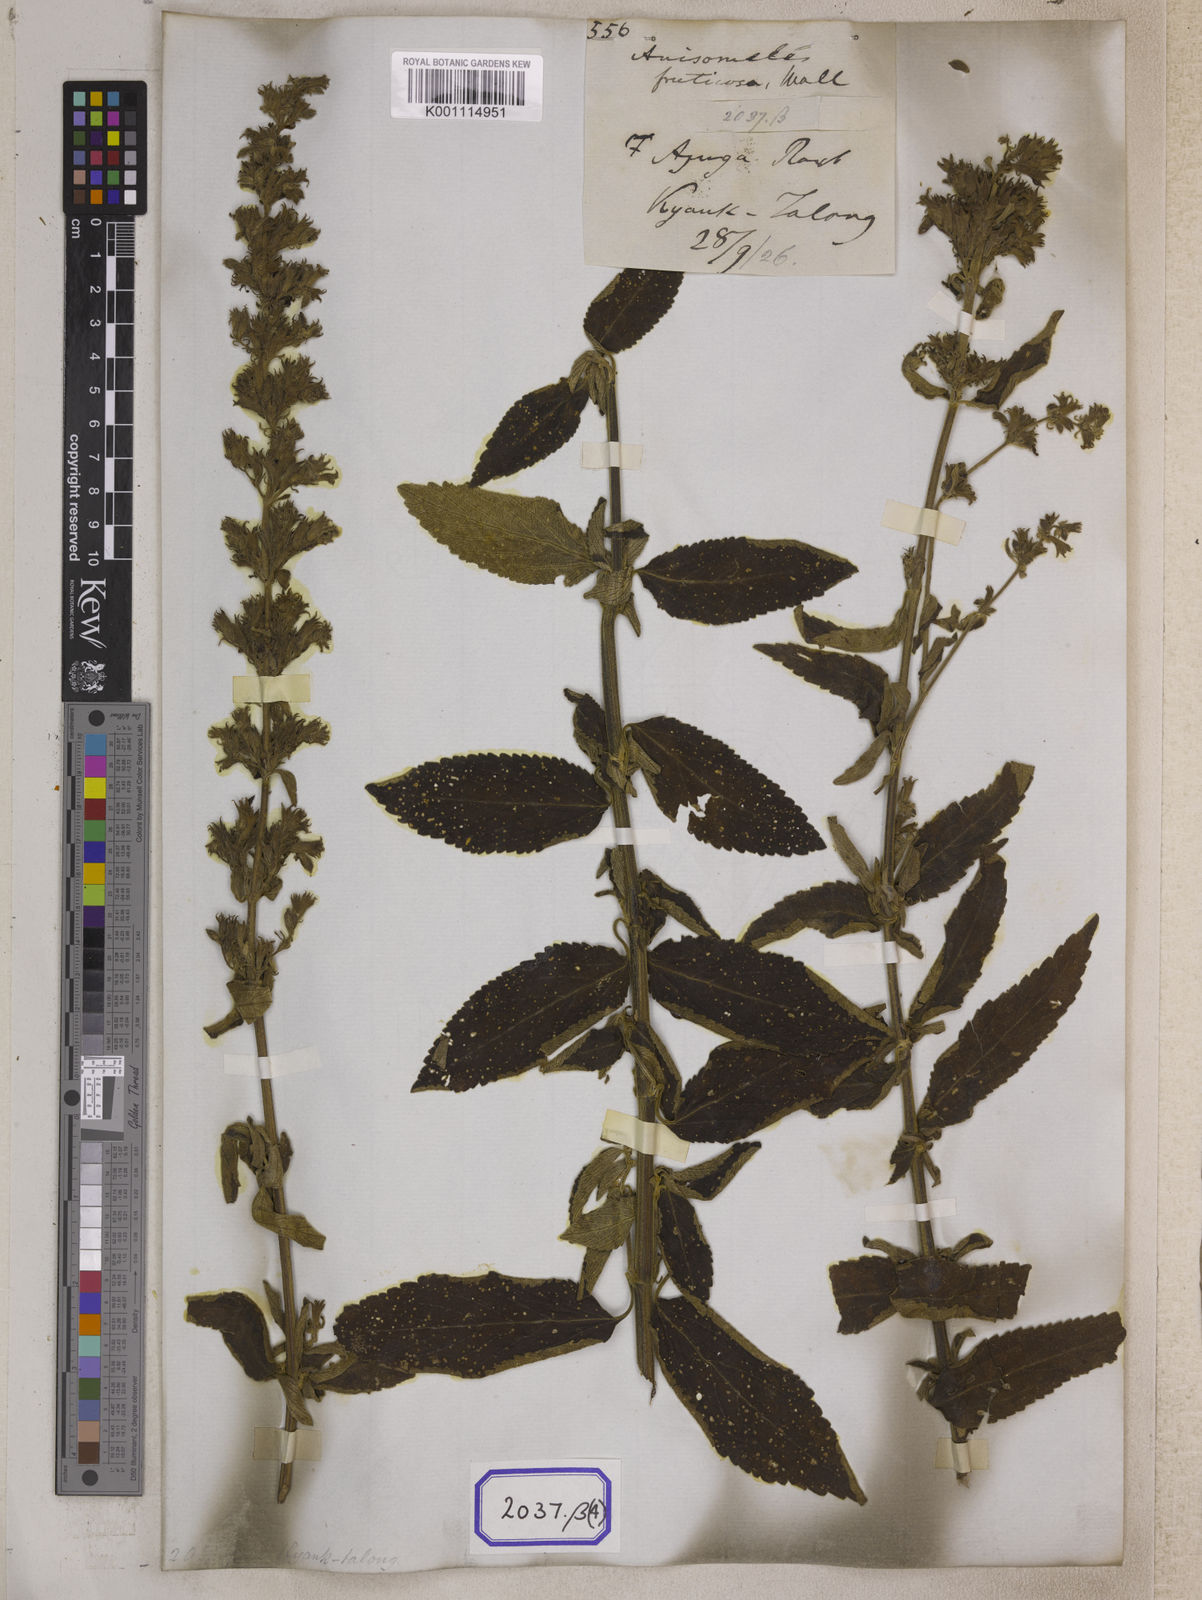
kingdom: Plantae
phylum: Tracheophyta
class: Magnoliopsida
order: Lamiales
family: Lamiaceae
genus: Anisomeles
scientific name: Anisomeles
